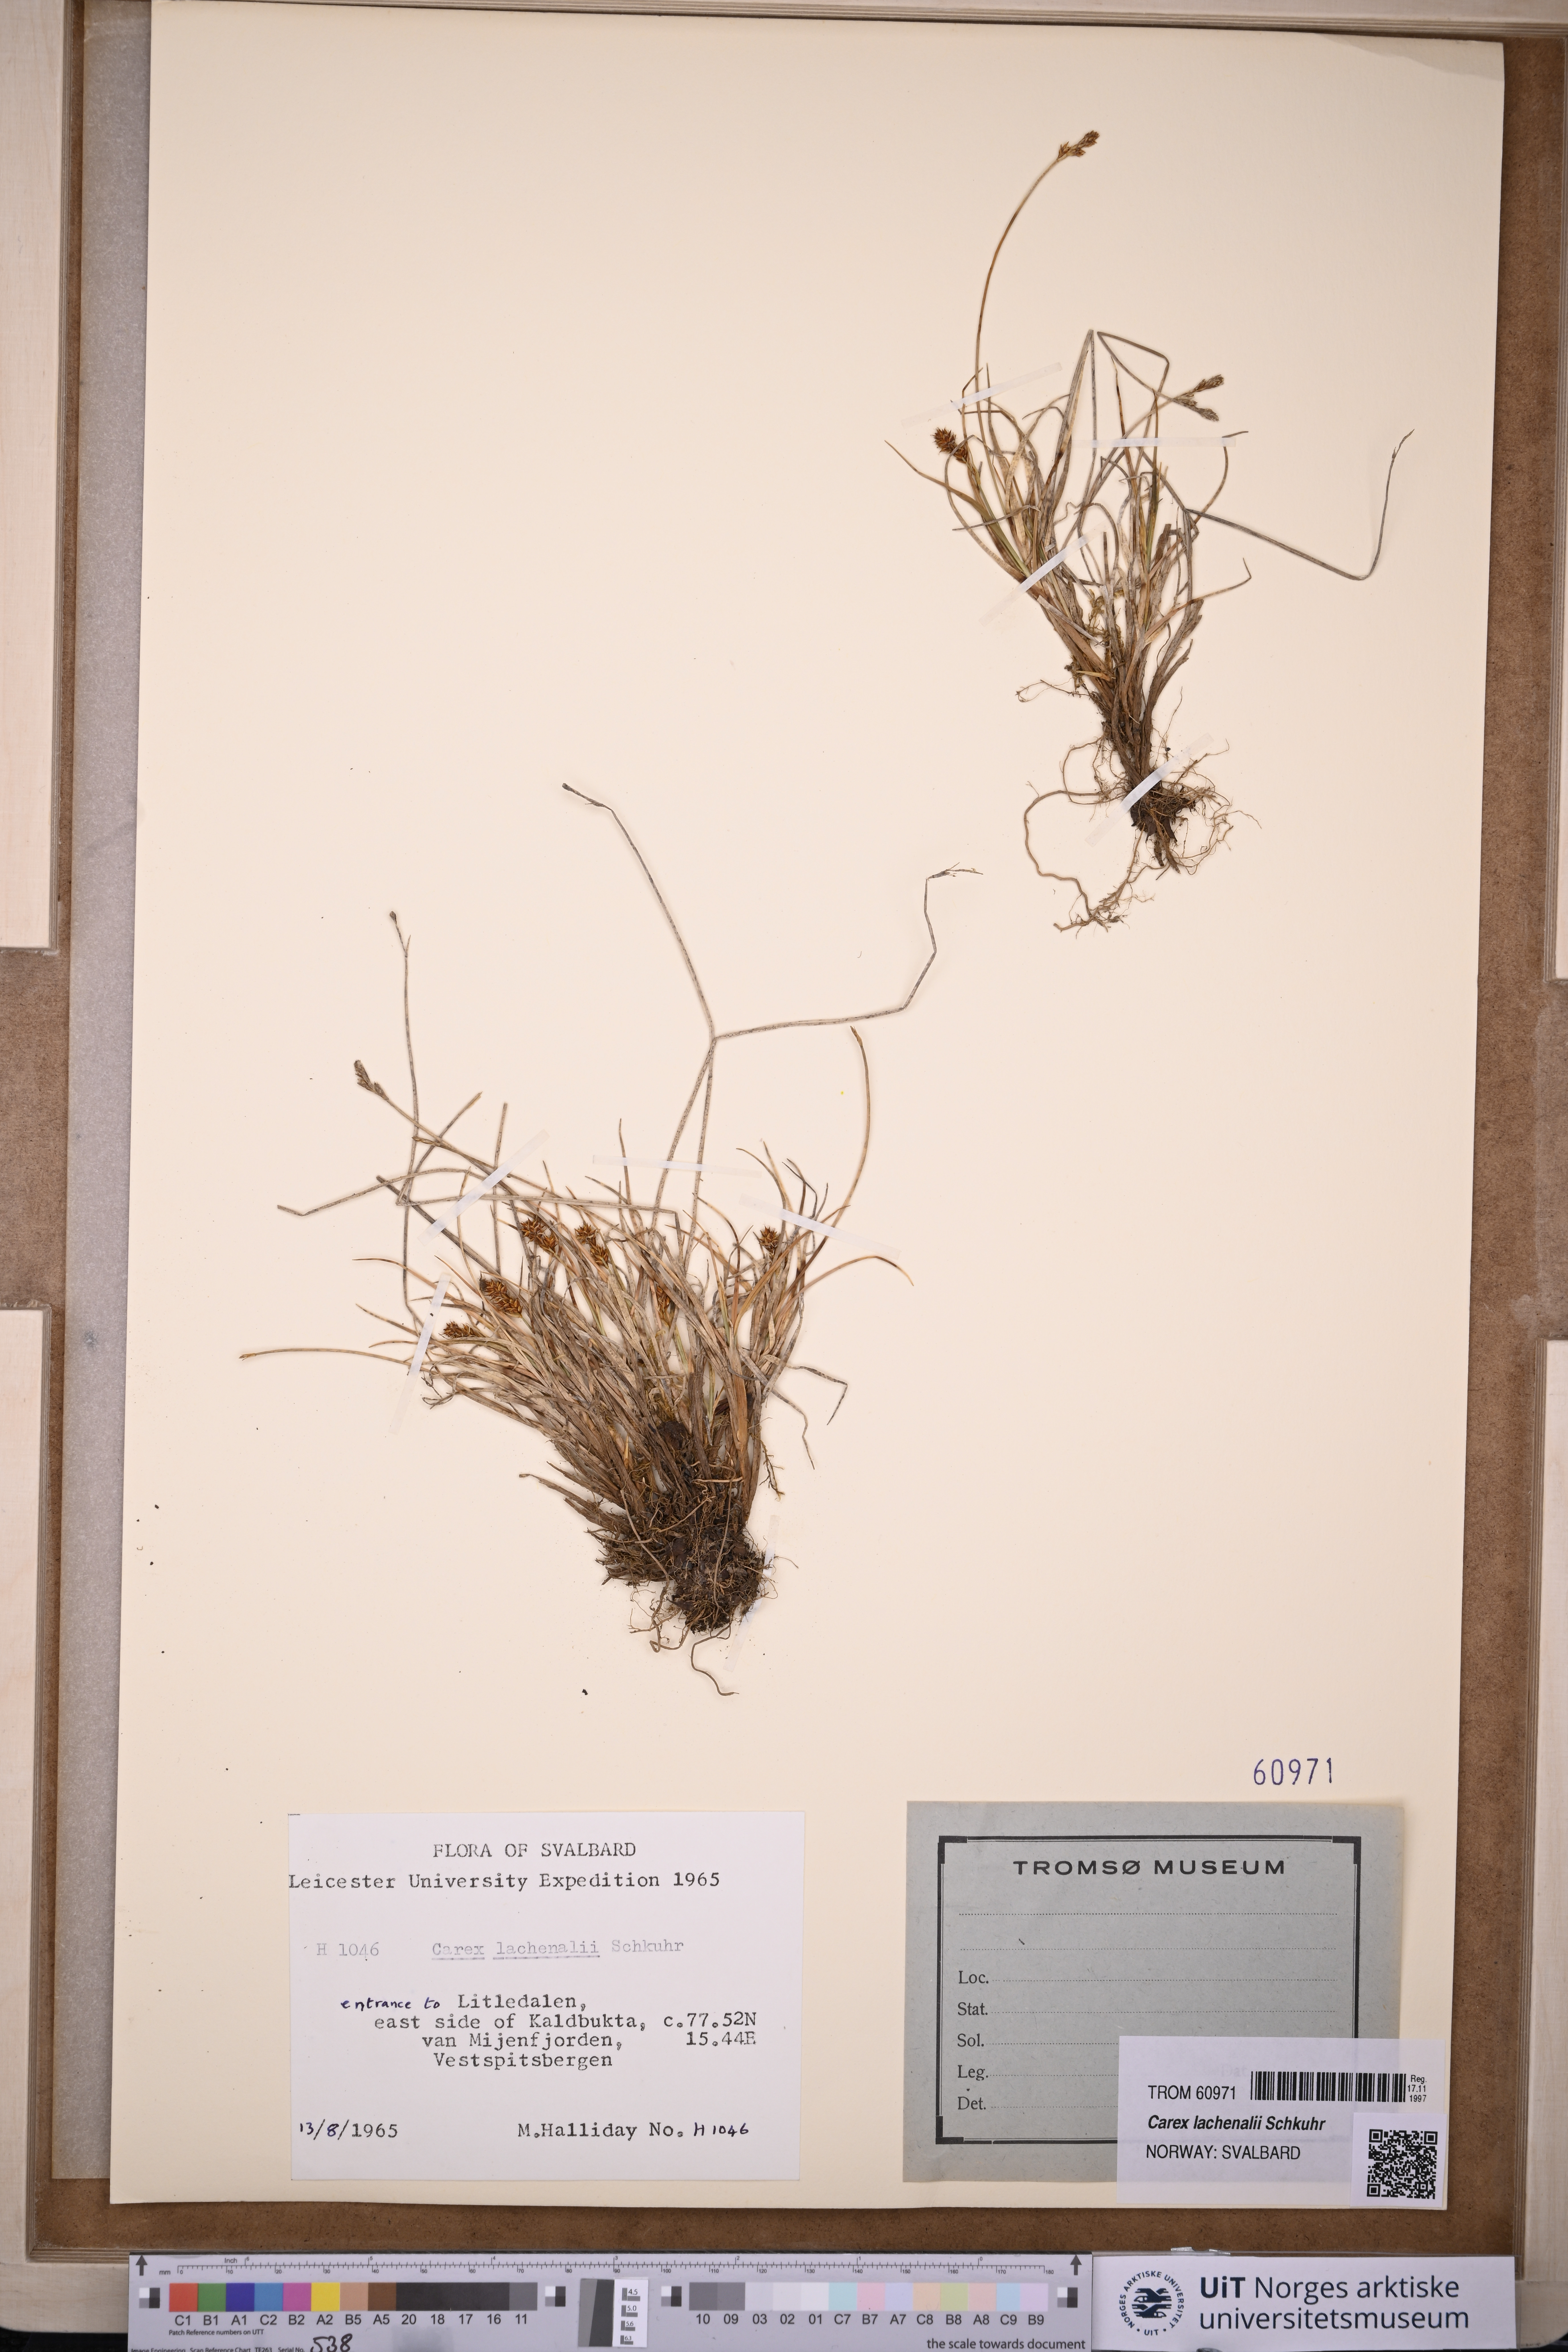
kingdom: Plantae
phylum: Tracheophyta
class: Liliopsida
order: Poales
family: Cyperaceae
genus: Carex
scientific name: Carex lachenalii
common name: Hare's-foot sedge
